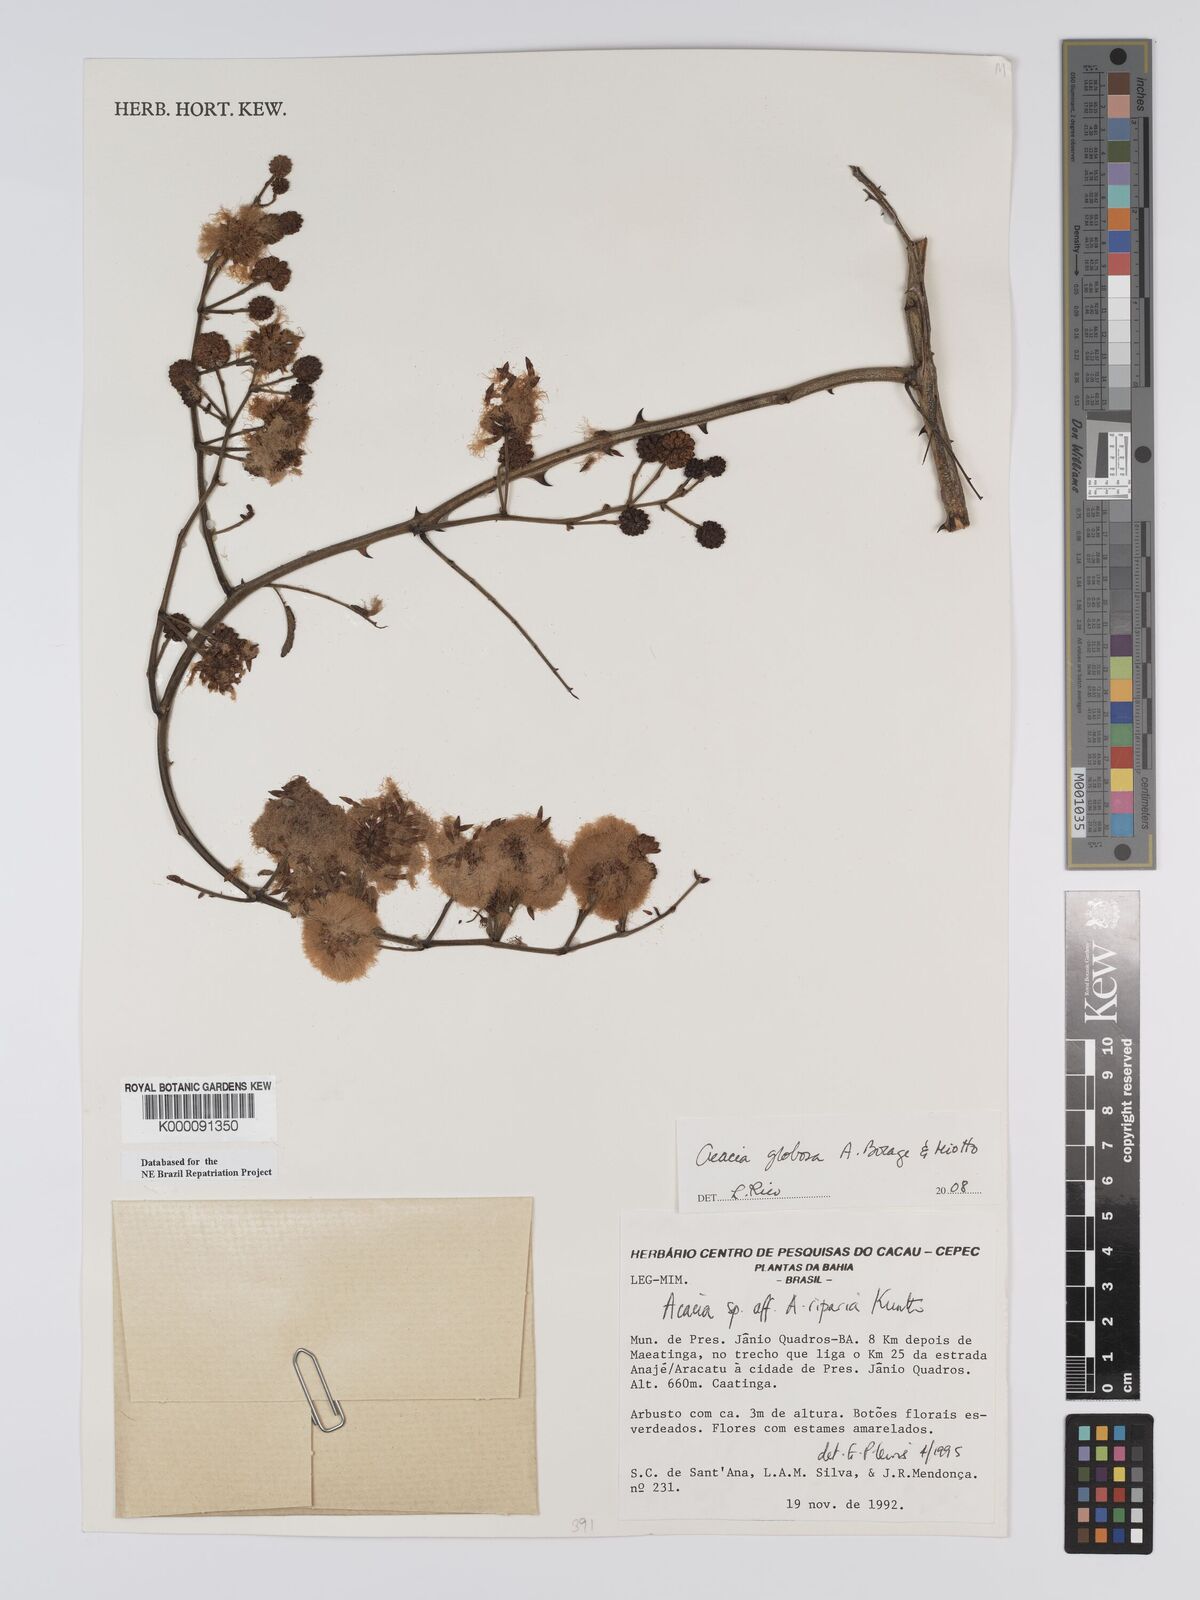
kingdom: Plantae
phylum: Tracheophyta
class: Magnoliopsida
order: Fabales
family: Fabaceae
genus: Senegalia
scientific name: Senegalia globosa
